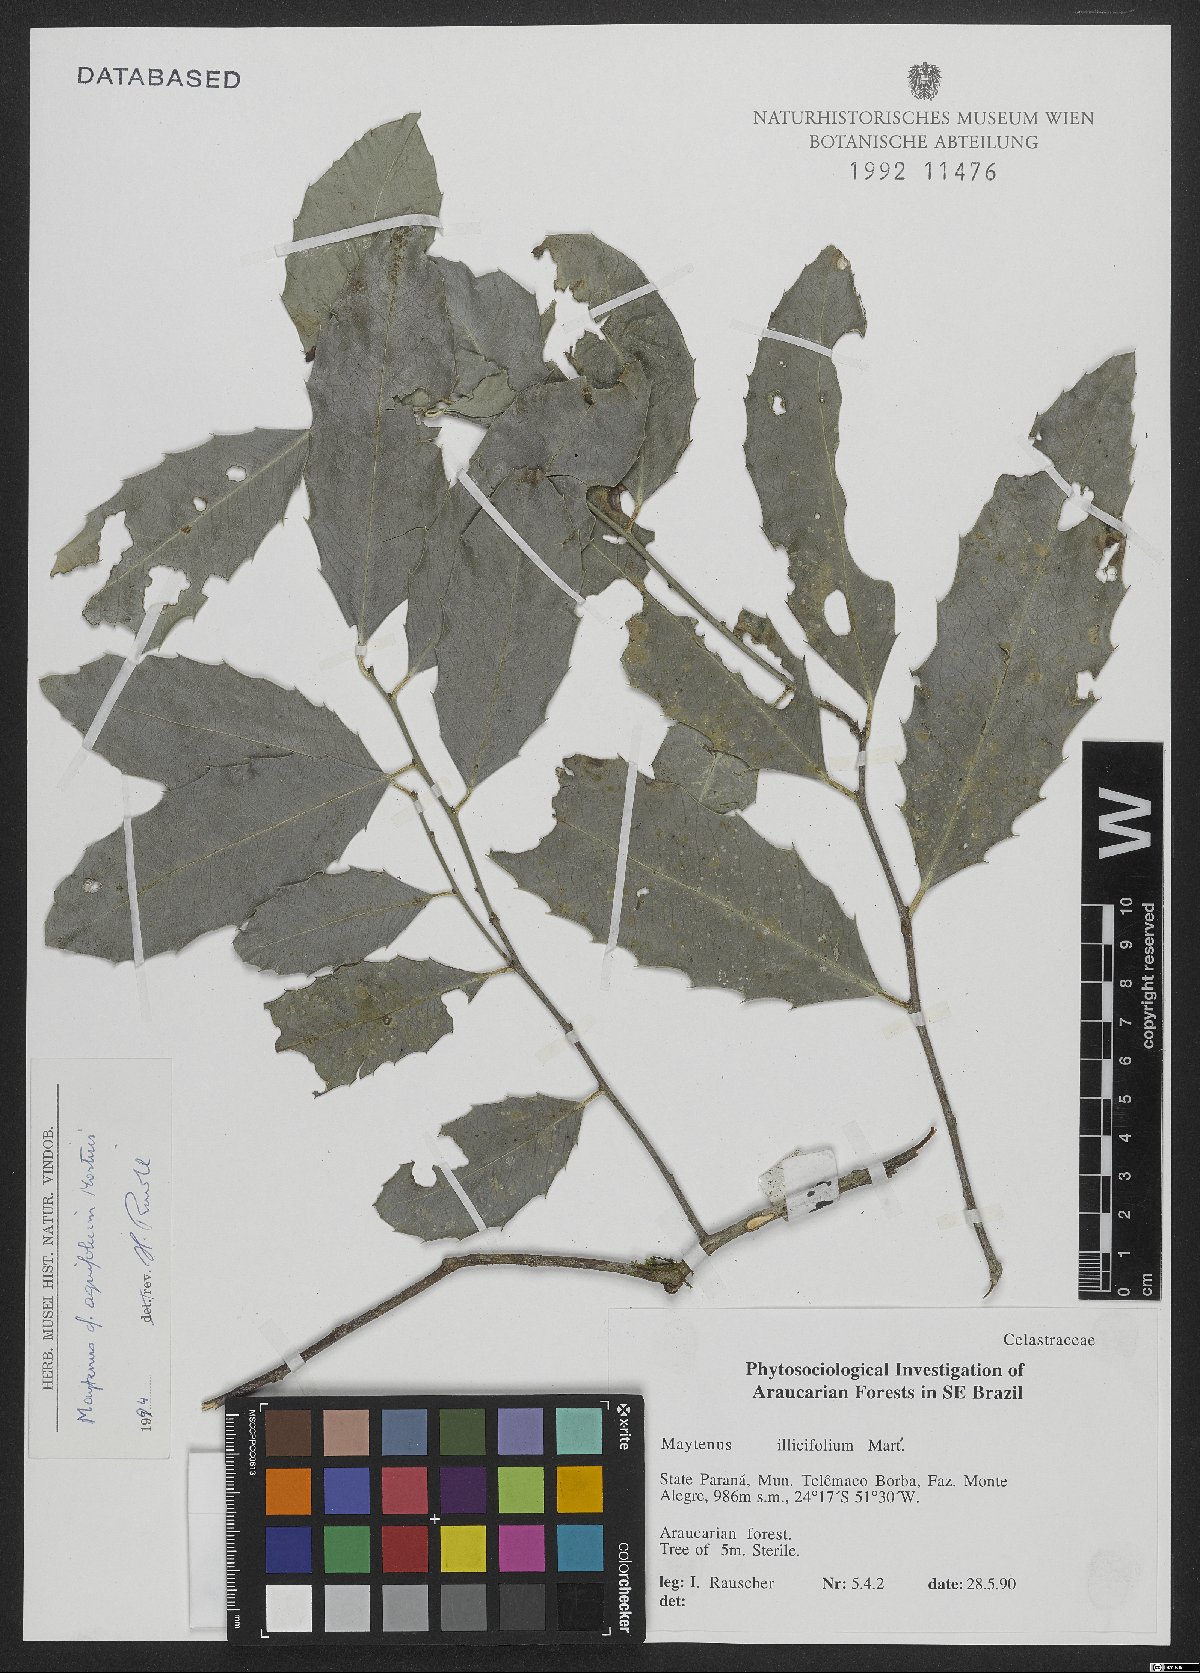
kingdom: Plantae
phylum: Tracheophyta
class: Magnoliopsida
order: Celastrales
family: Celastraceae
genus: Monteverdia
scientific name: Monteverdia aquifolium
